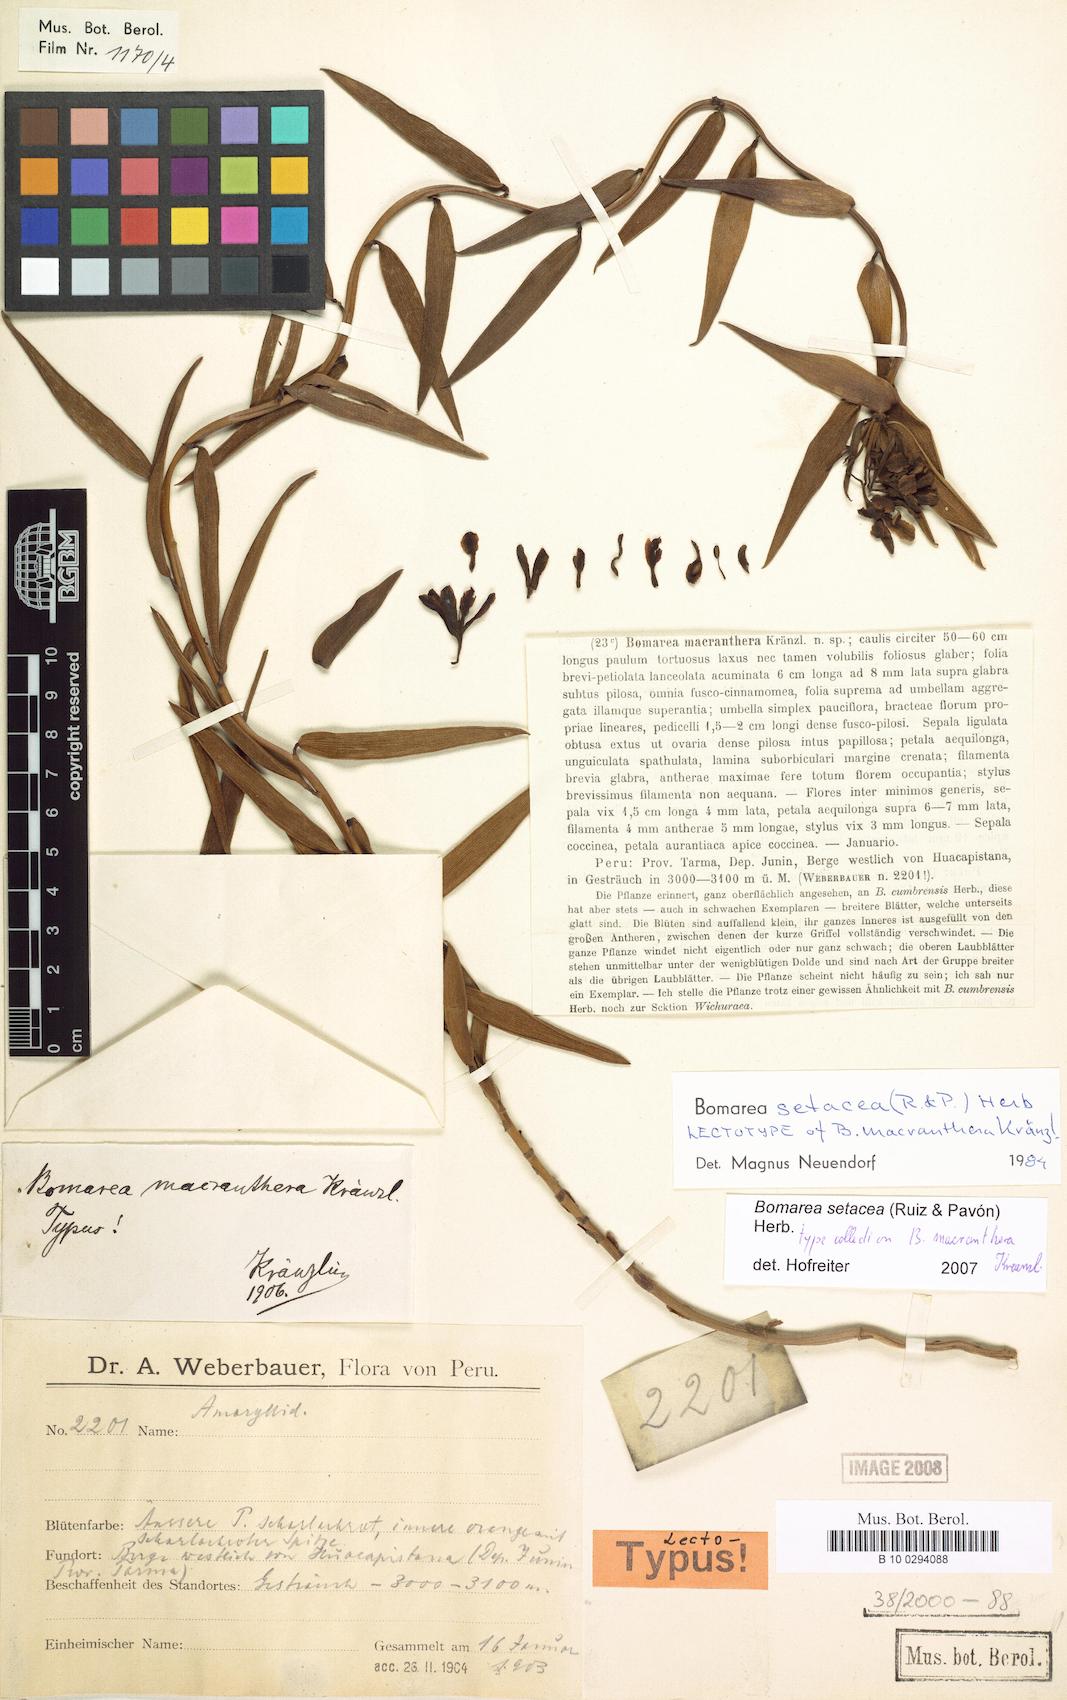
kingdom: Plantae
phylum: Tracheophyta
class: Liliopsida
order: Liliales
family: Alstroemeriaceae
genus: Bomarea
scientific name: Bomarea setacea
